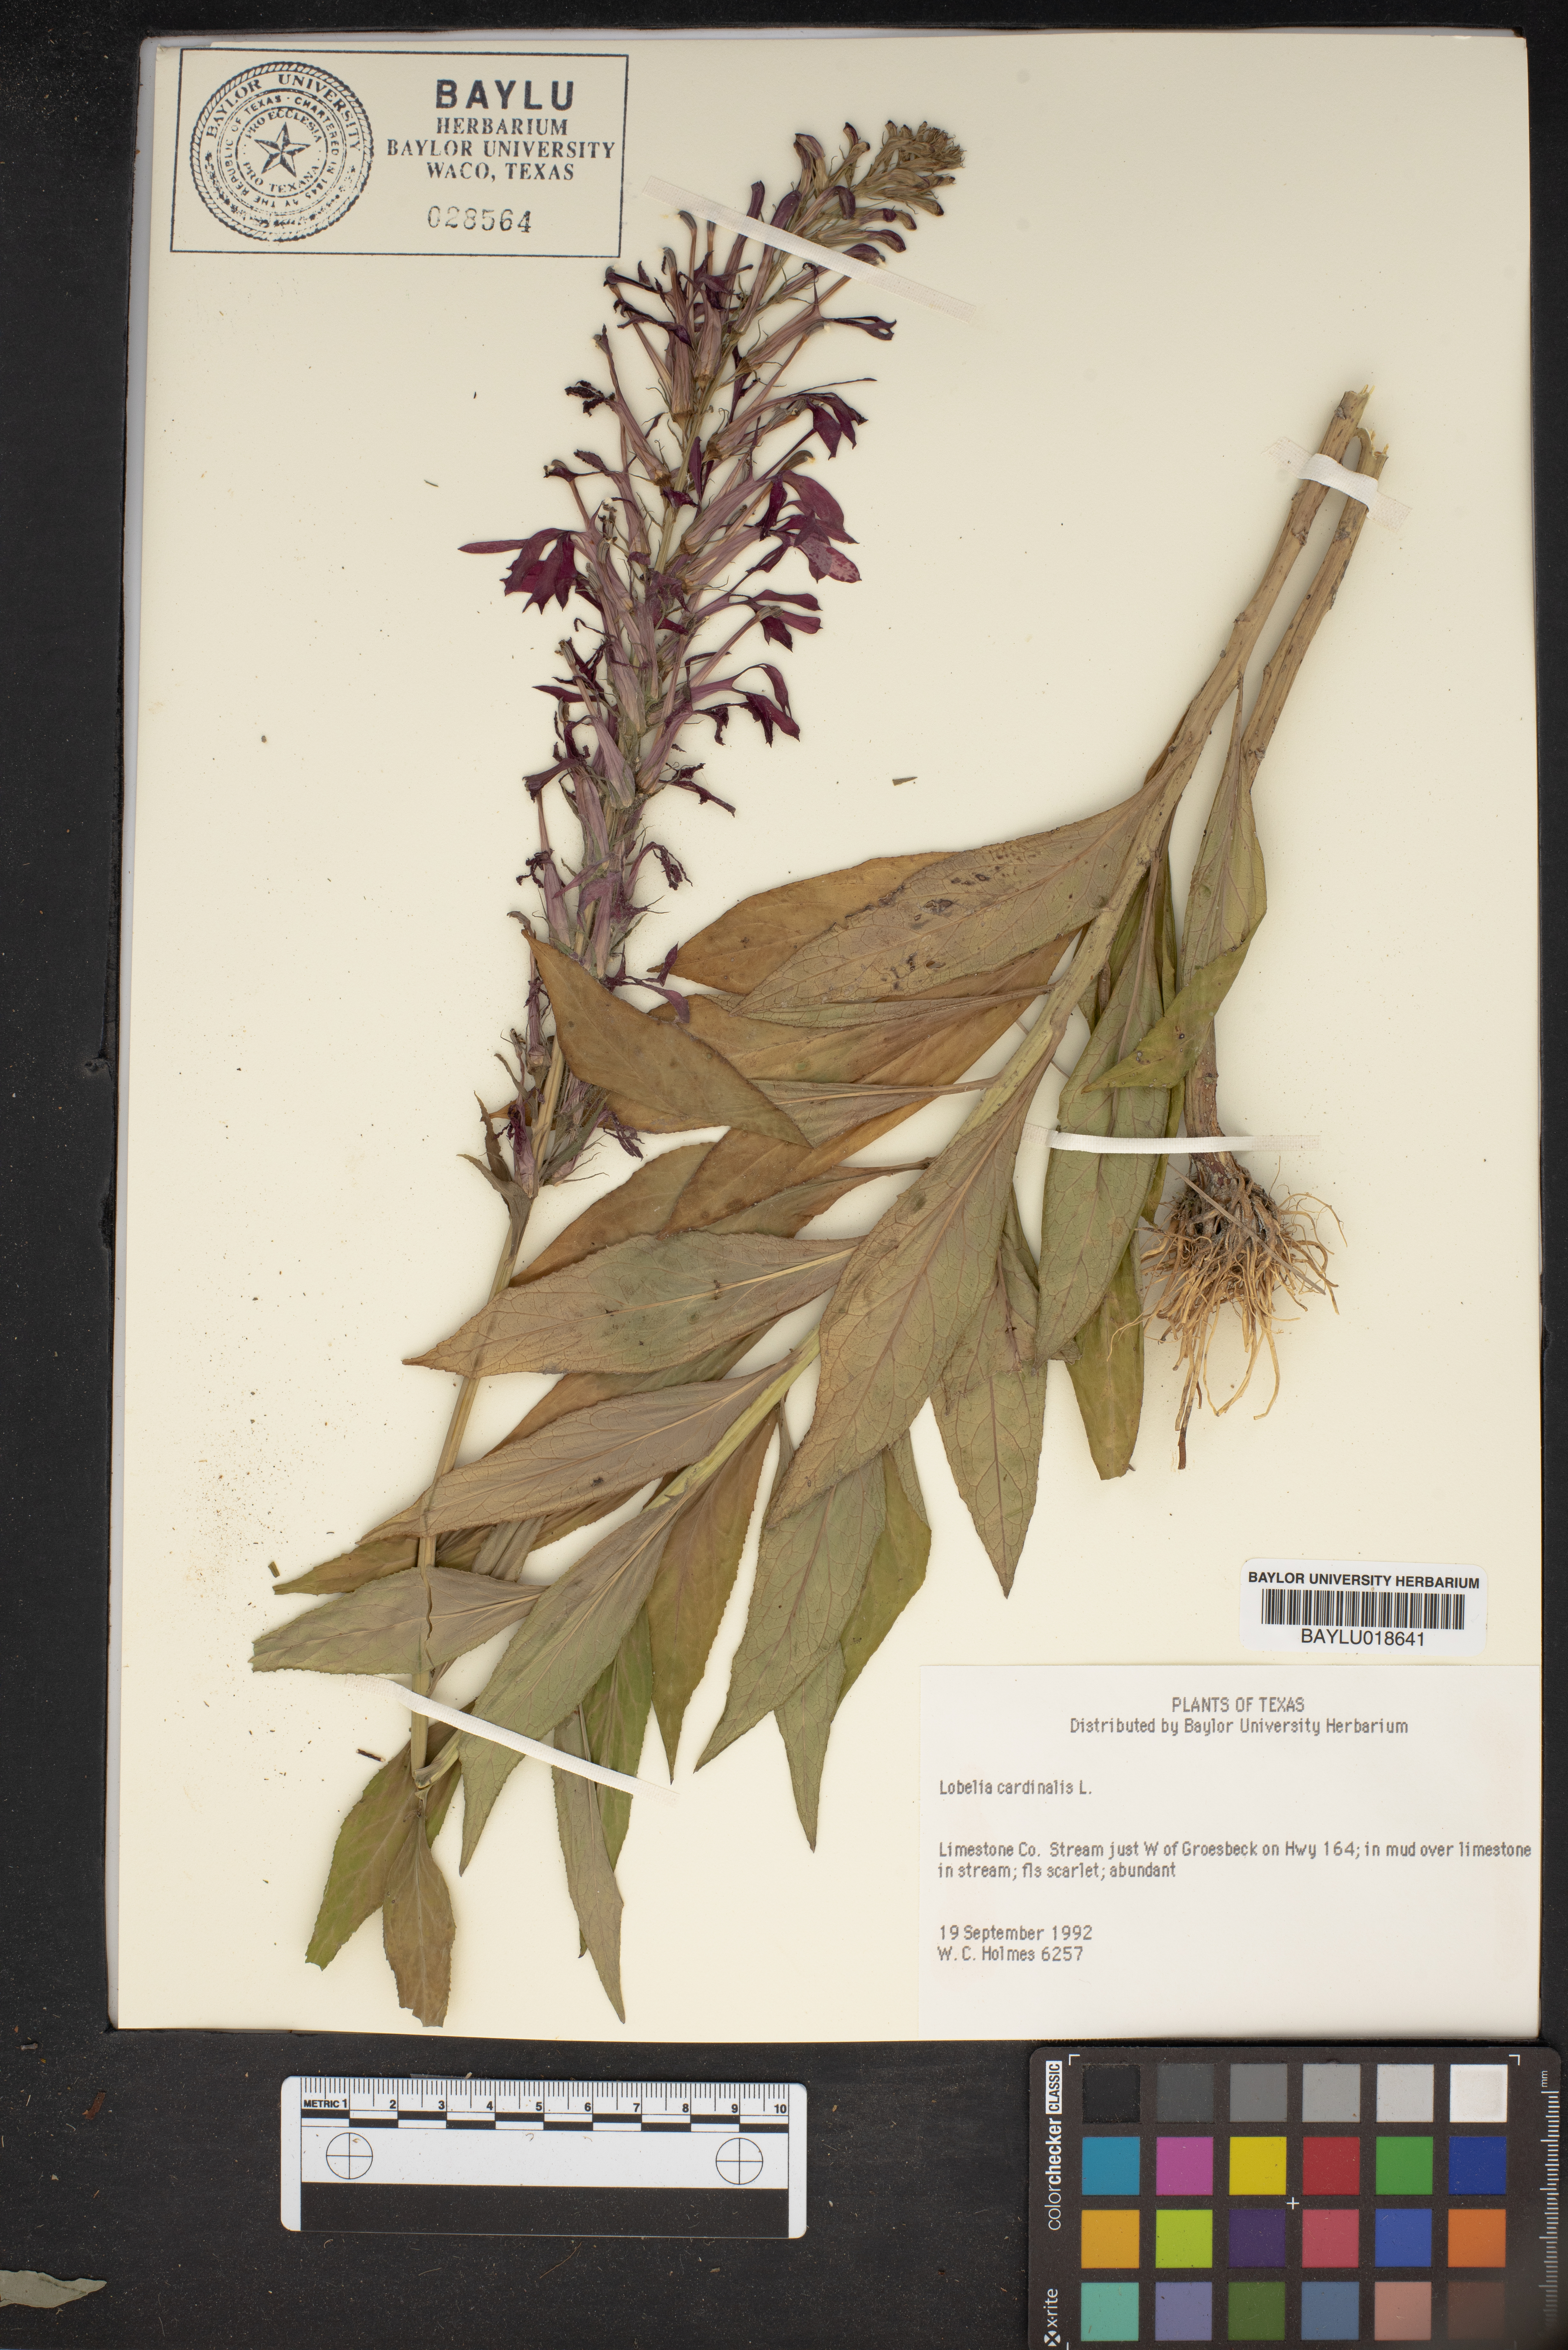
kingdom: Plantae
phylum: Tracheophyta
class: Magnoliopsida
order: Asterales
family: Campanulaceae
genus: Lobelia
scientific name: Lobelia cardinalis
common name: Cardinal flower
